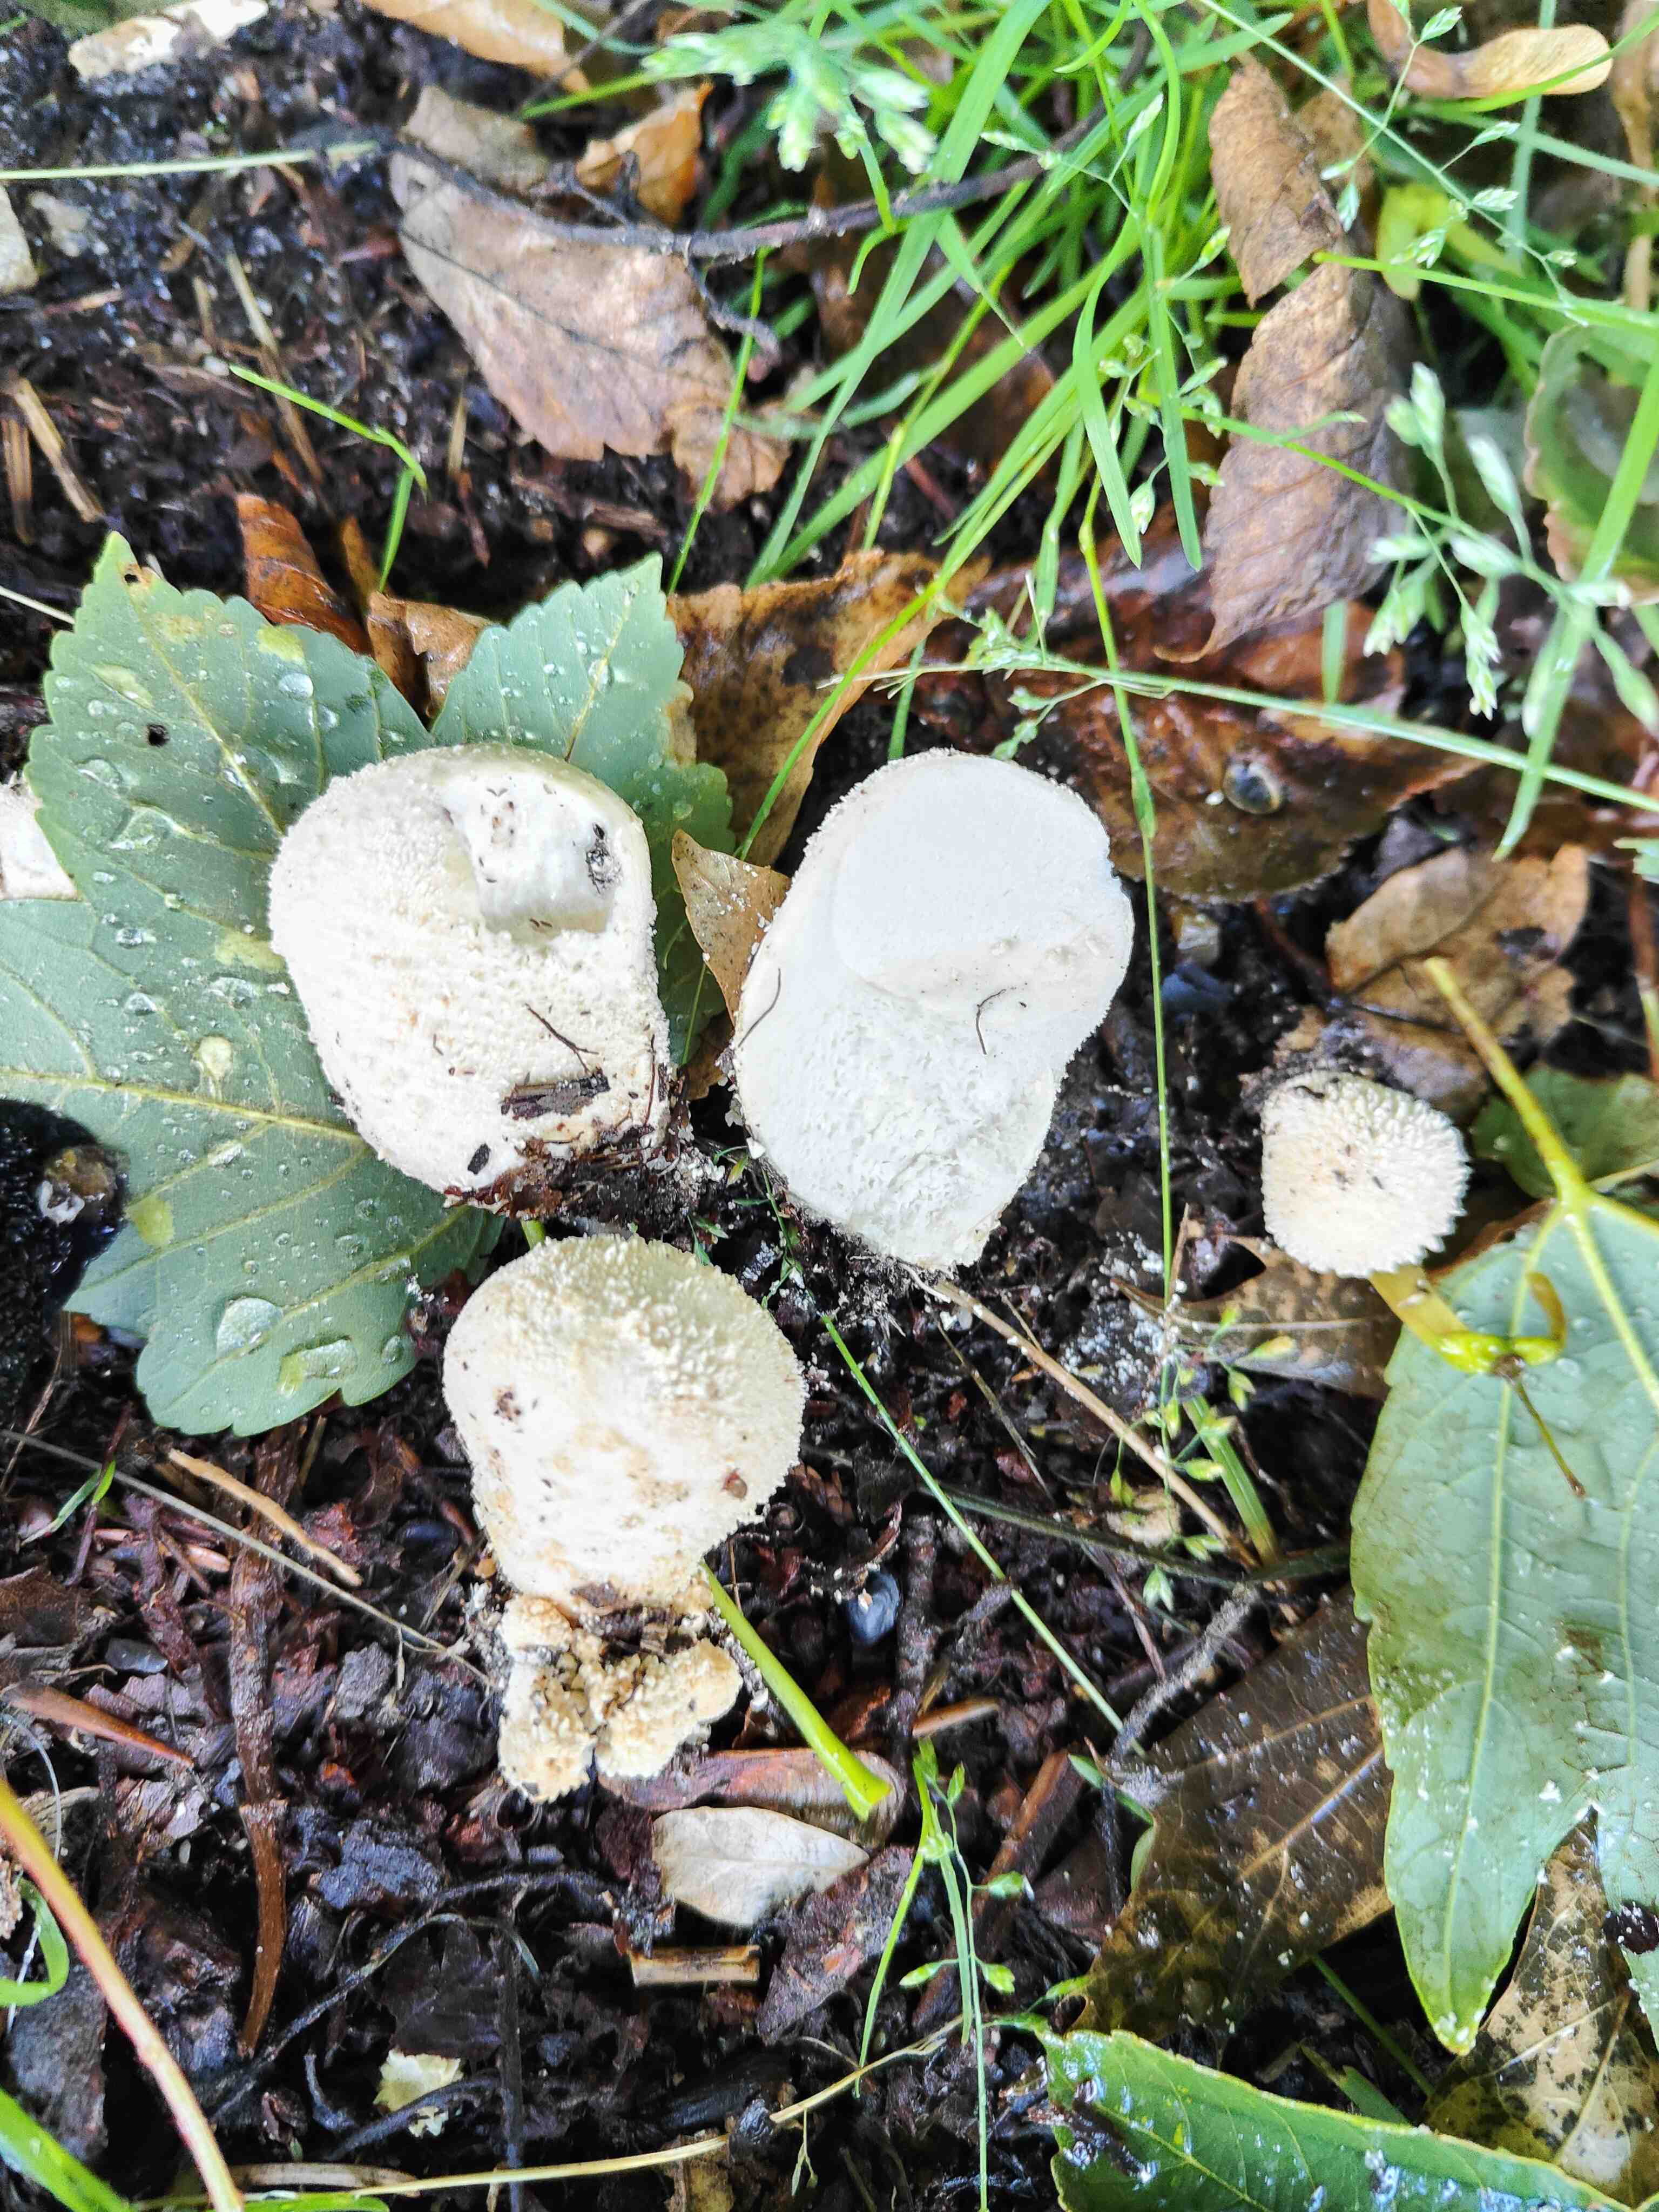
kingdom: Fungi
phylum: Basidiomycota
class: Agaricomycetes
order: Agaricales
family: Agaricaceae
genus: Lycoperdon
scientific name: Lycoperdon
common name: støvbold
